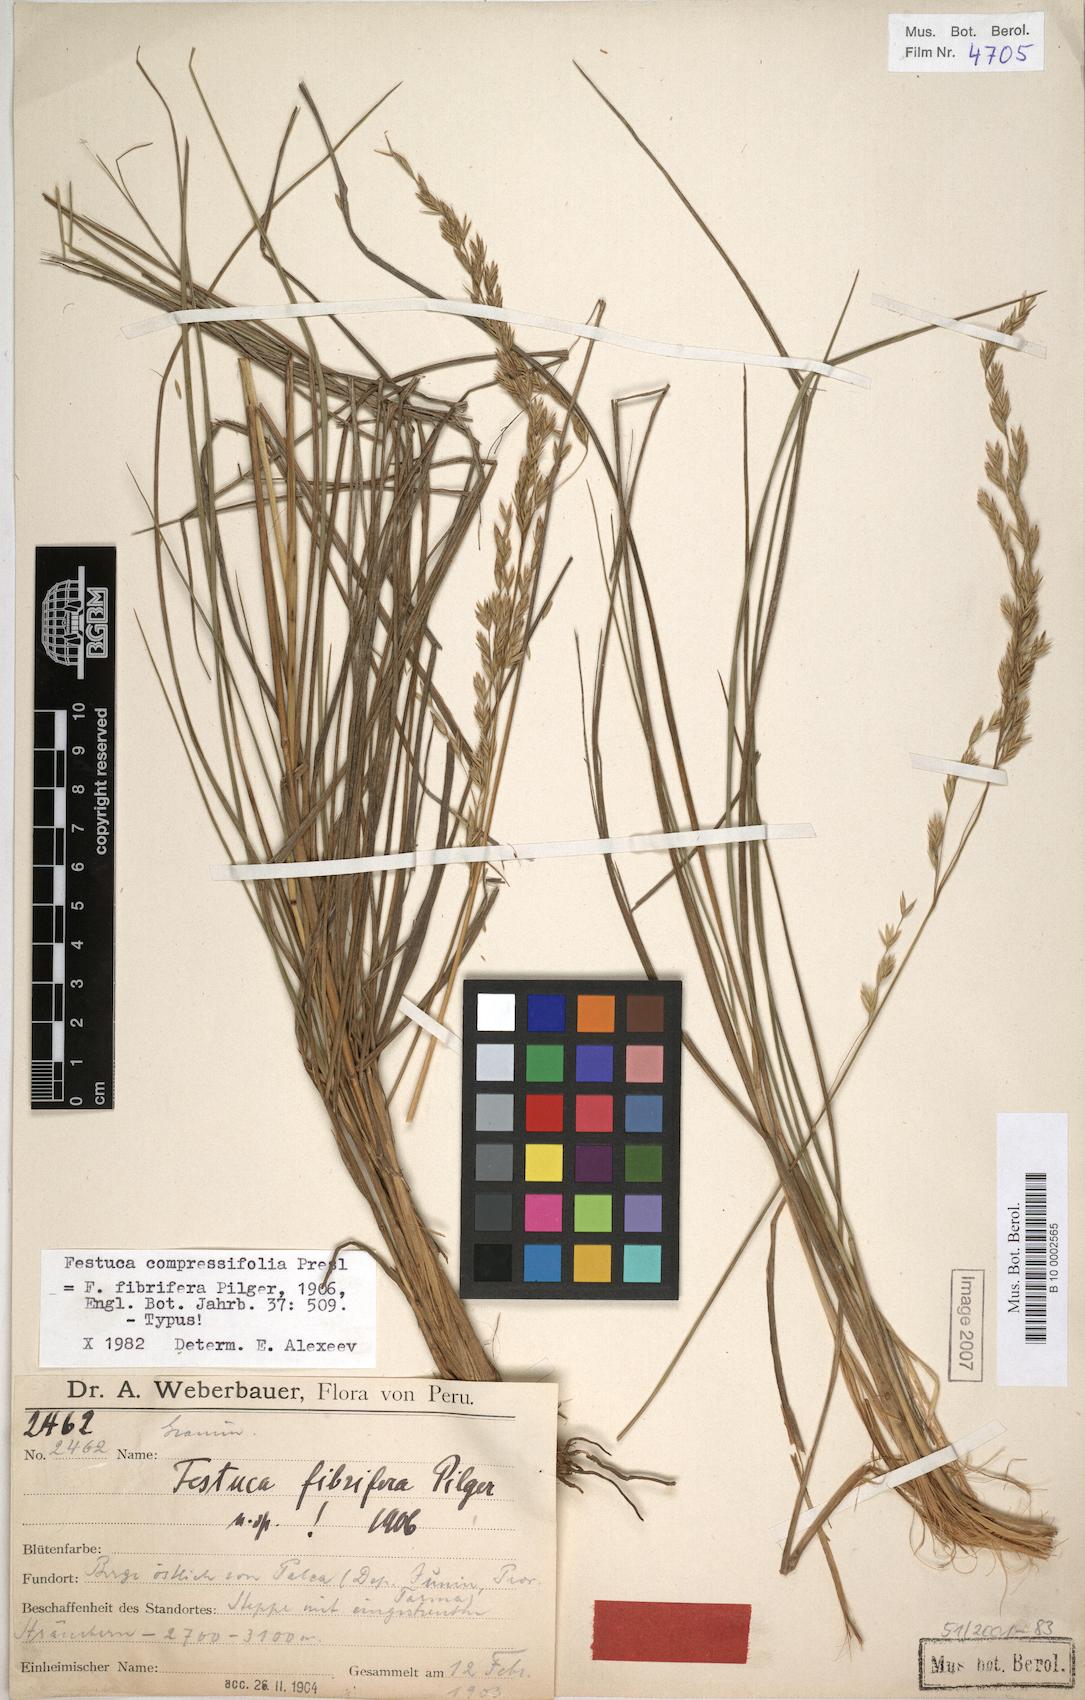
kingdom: Plantae
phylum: Tracheophyta
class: Liliopsida
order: Poales
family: Poaceae
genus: Festuca
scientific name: Festuca compressifolia
